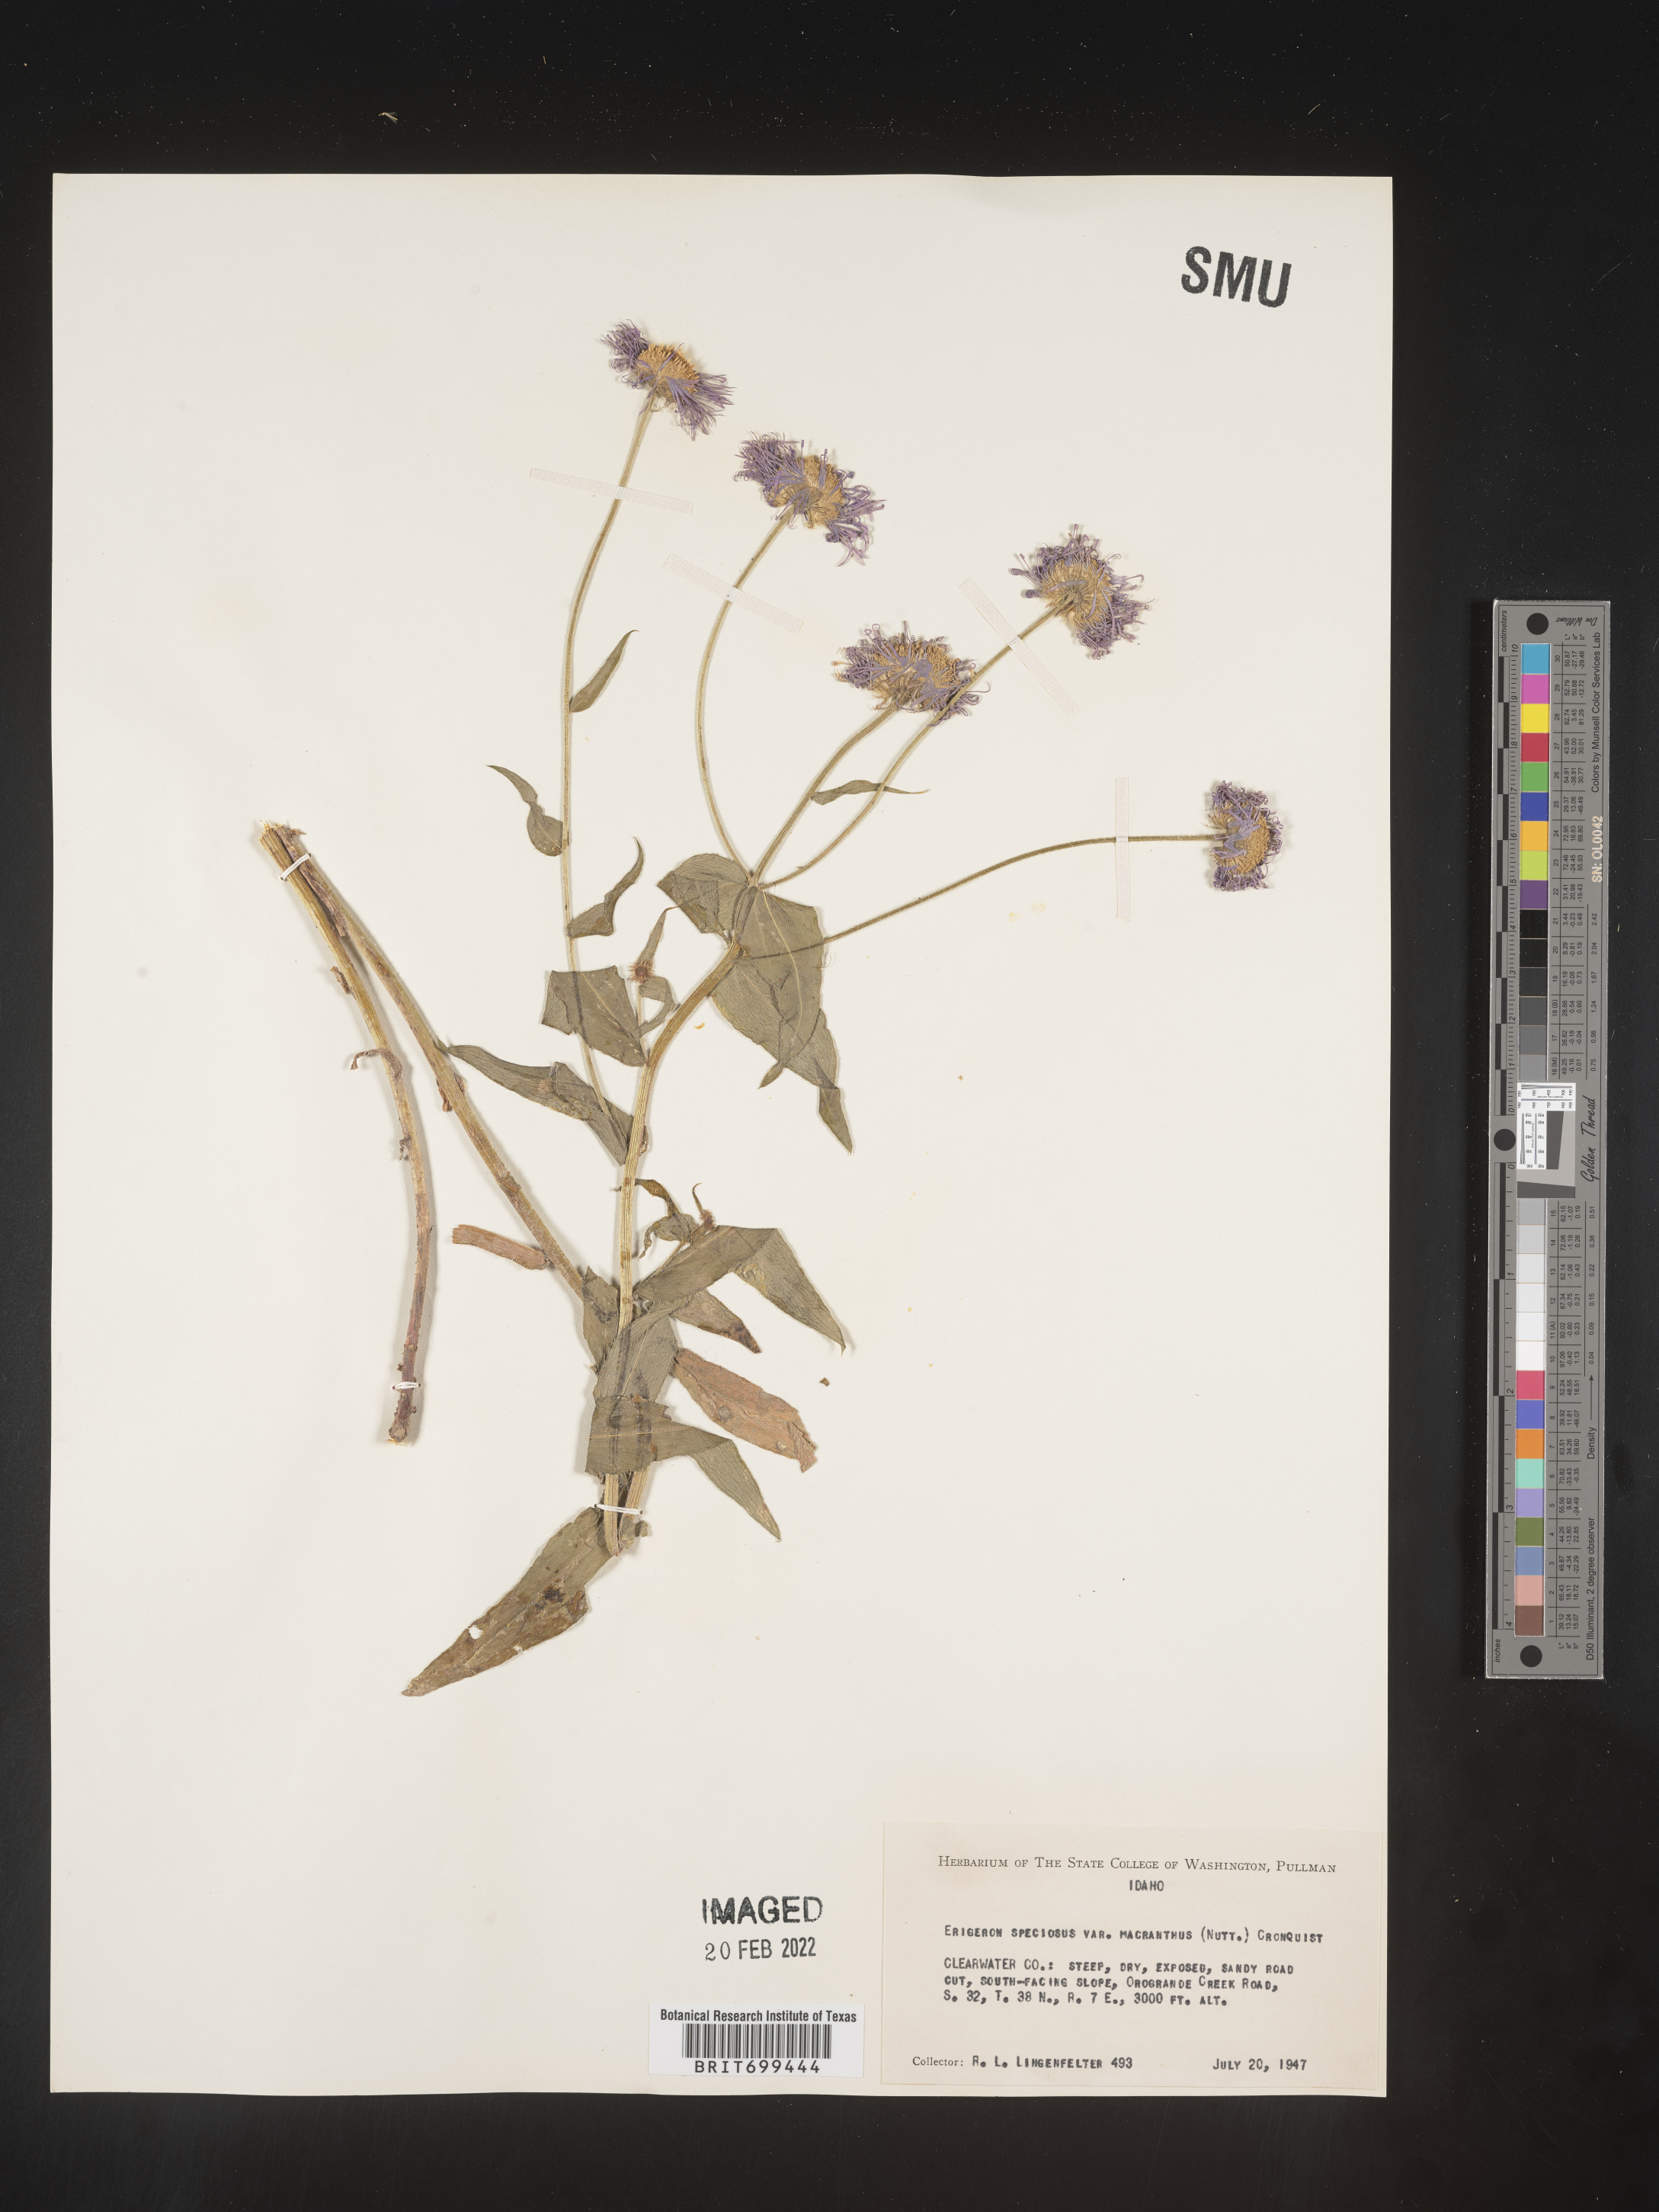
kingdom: Plantae
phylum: Tracheophyta
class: Magnoliopsida
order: Asterales
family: Asteraceae
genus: Erigeron
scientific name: Erigeron speciosus
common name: Aspen fleabane
